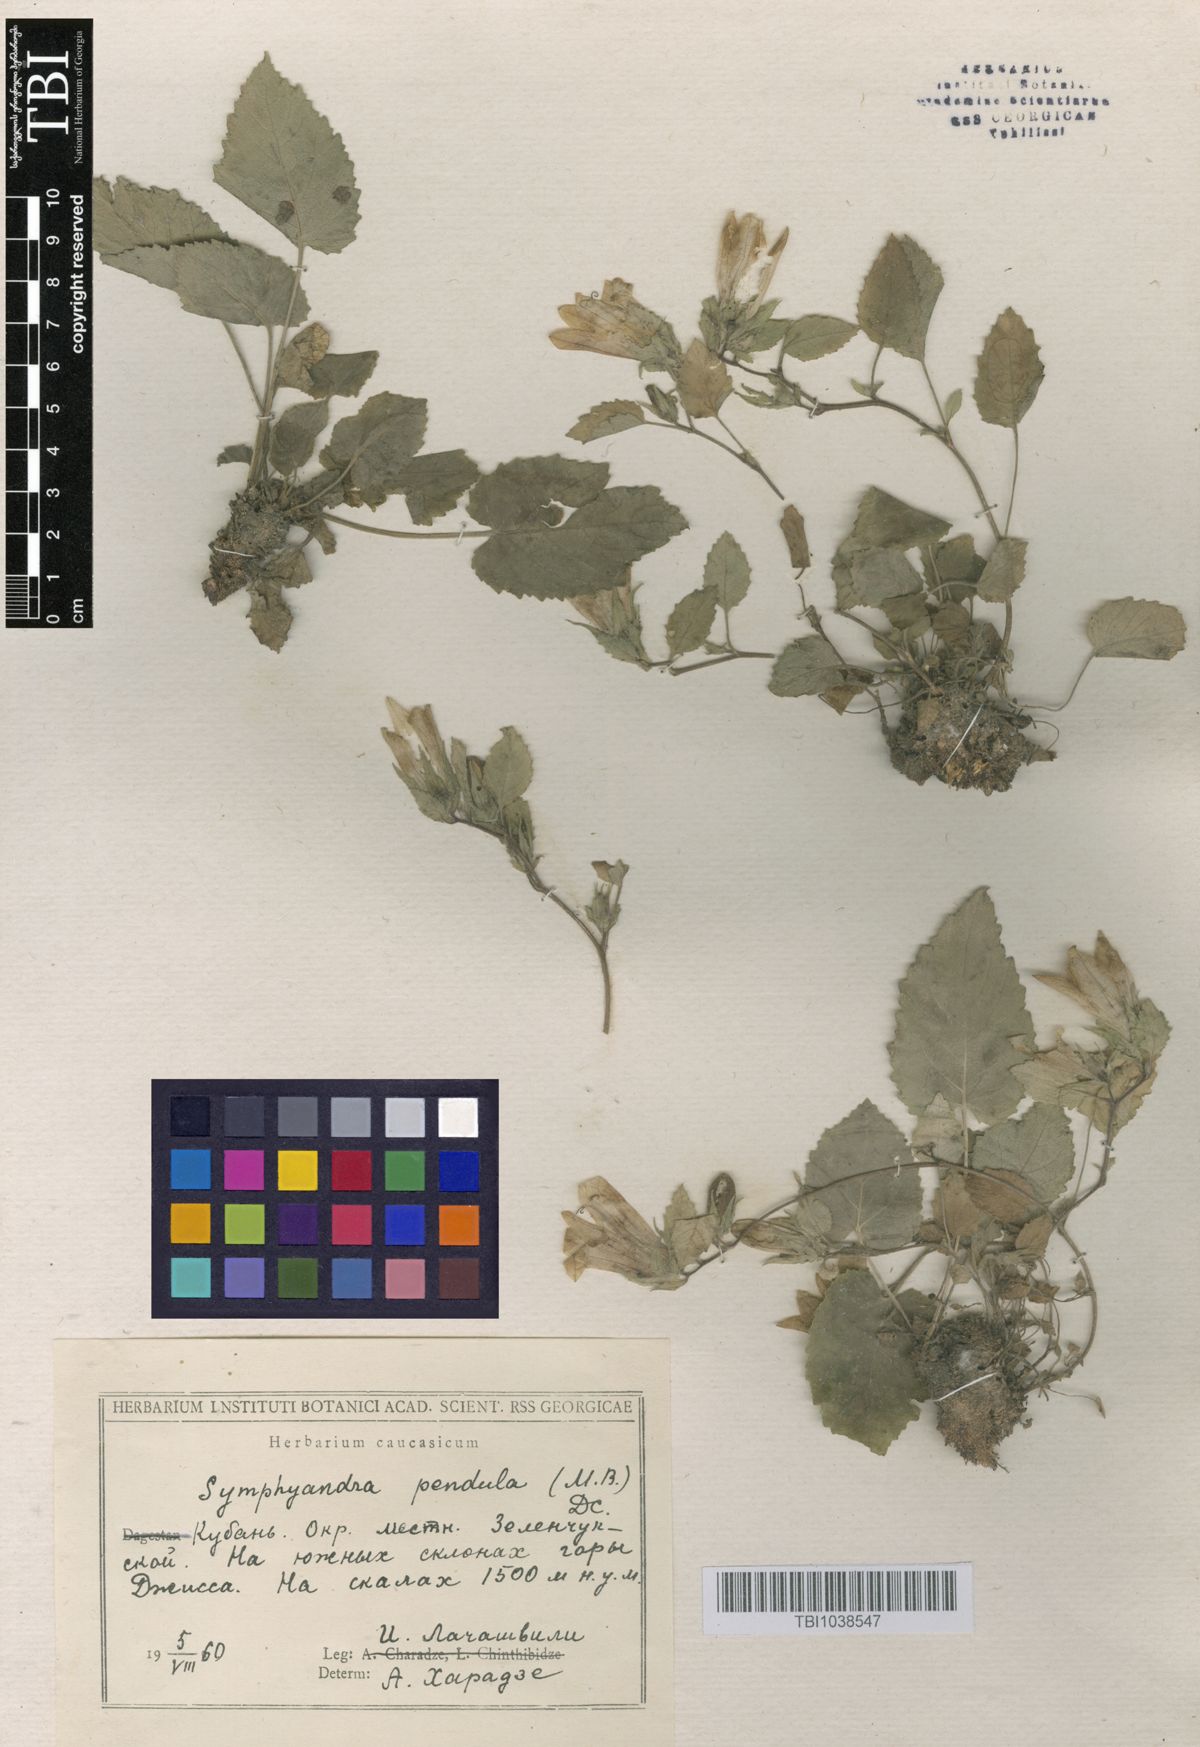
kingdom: Plantae
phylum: Tracheophyta
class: Magnoliopsida
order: Asterales
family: Campanulaceae
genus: Campanula
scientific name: Campanula pendula
